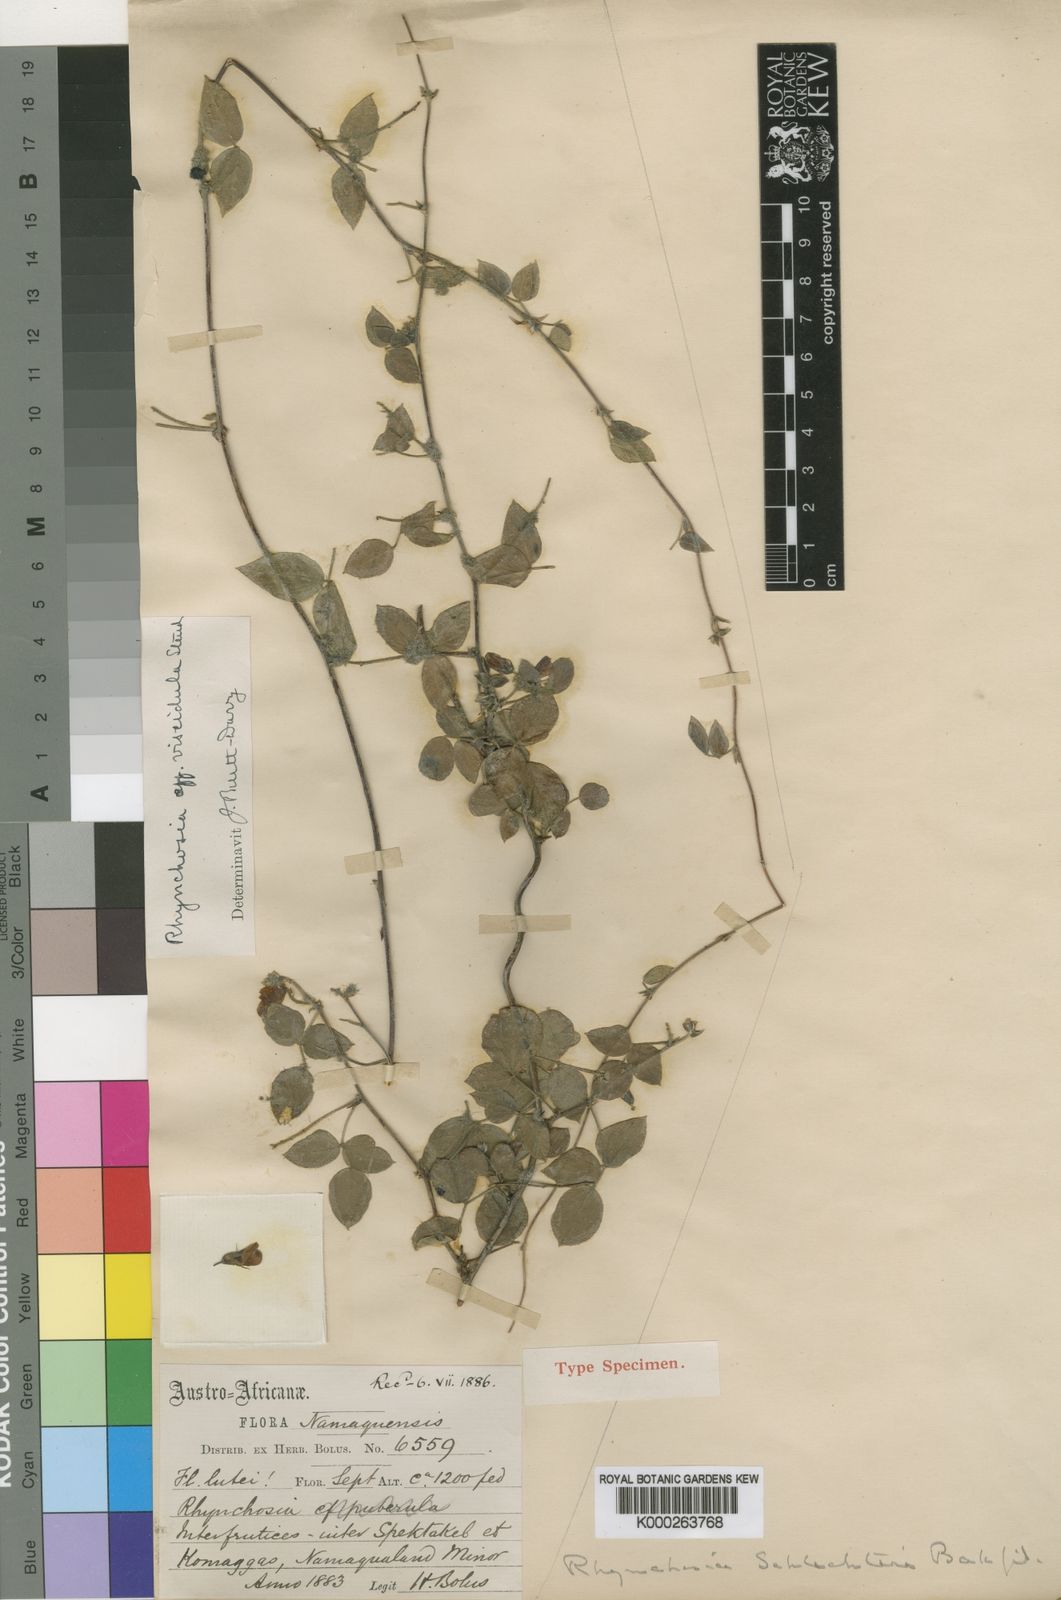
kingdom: Plantae
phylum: Tracheophyta
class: Magnoliopsida
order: Fabales
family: Fabaceae
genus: Rhynchosia
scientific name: Rhynchosia schlechteri
